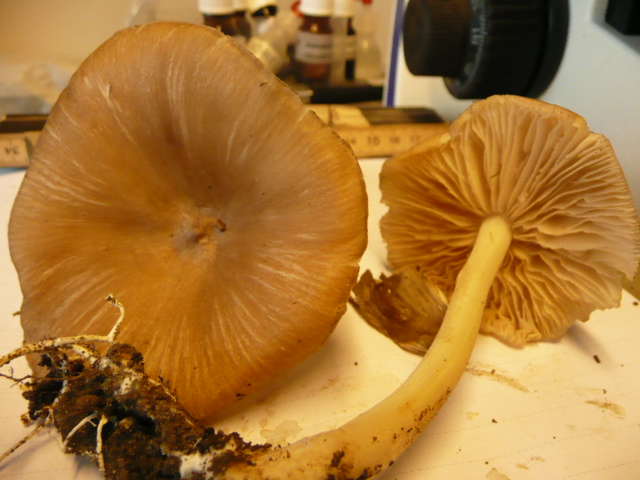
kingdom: Fungi
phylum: Basidiomycota
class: Agaricomycetes
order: Agaricales
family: Tricholomataceae
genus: Megacollybia
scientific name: Megacollybia platyphylla
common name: bredbladet væbnerhat
